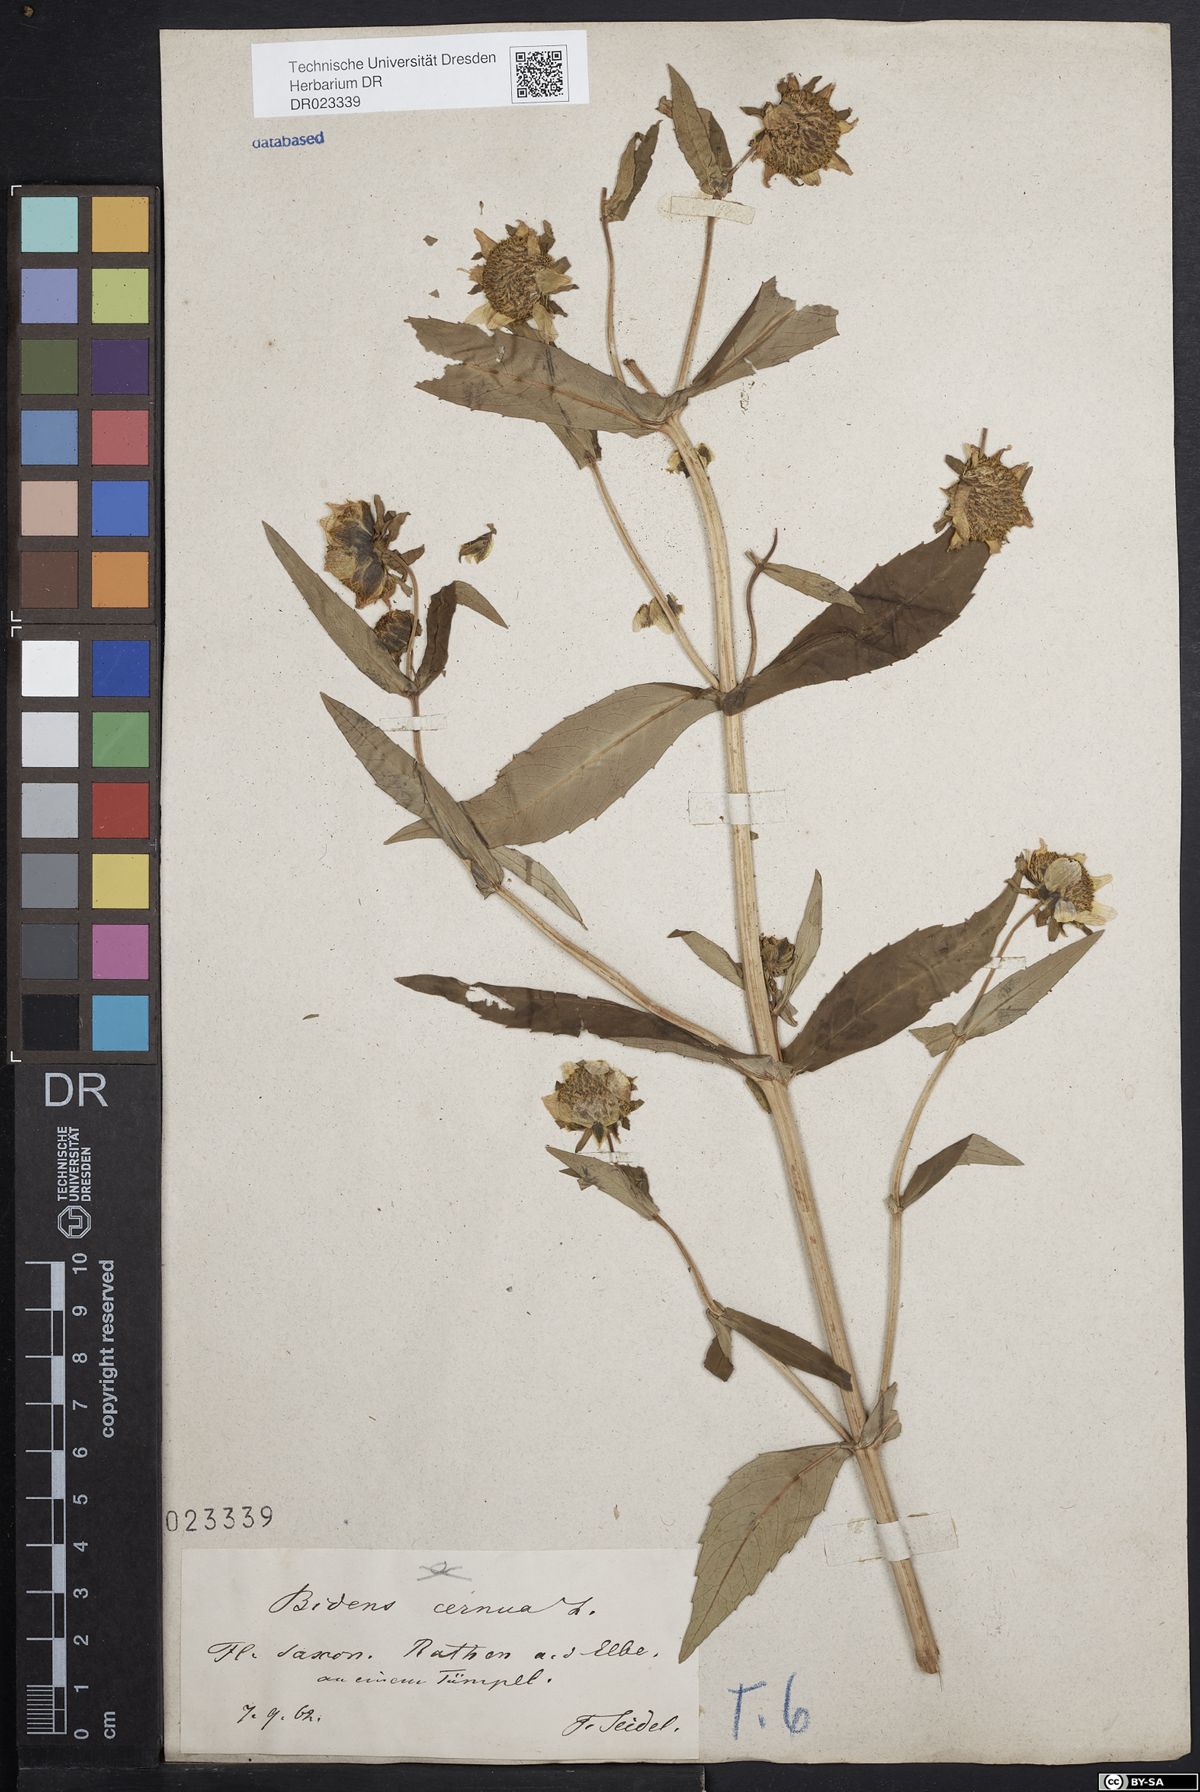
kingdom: Plantae
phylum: Tracheophyta
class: Magnoliopsida
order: Asterales
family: Asteraceae
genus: Bidens
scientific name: Bidens cernua
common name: Nodding bur-marigold
